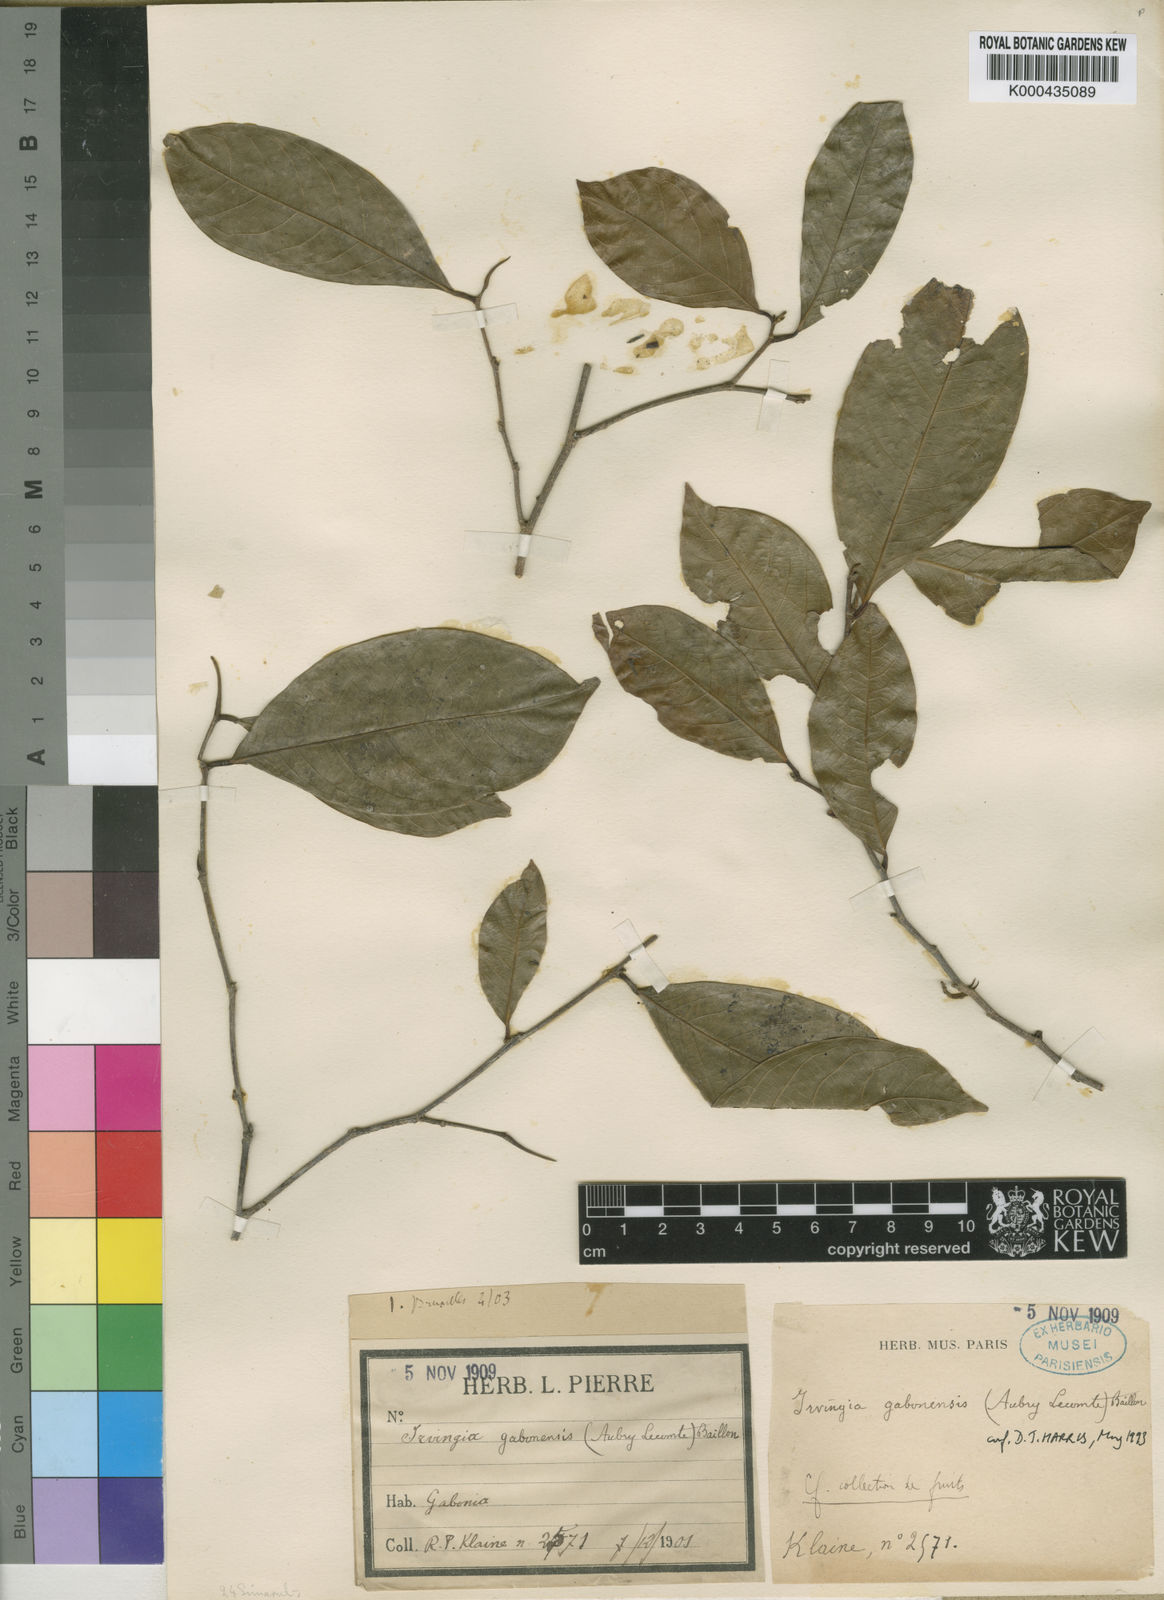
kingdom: Plantae
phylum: Tracheophyta
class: Magnoliopsida
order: Malpighiales
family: Irvingiaceae
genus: Irvingia
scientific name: Irvingia gabonensis
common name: Rainy season bush-mango
